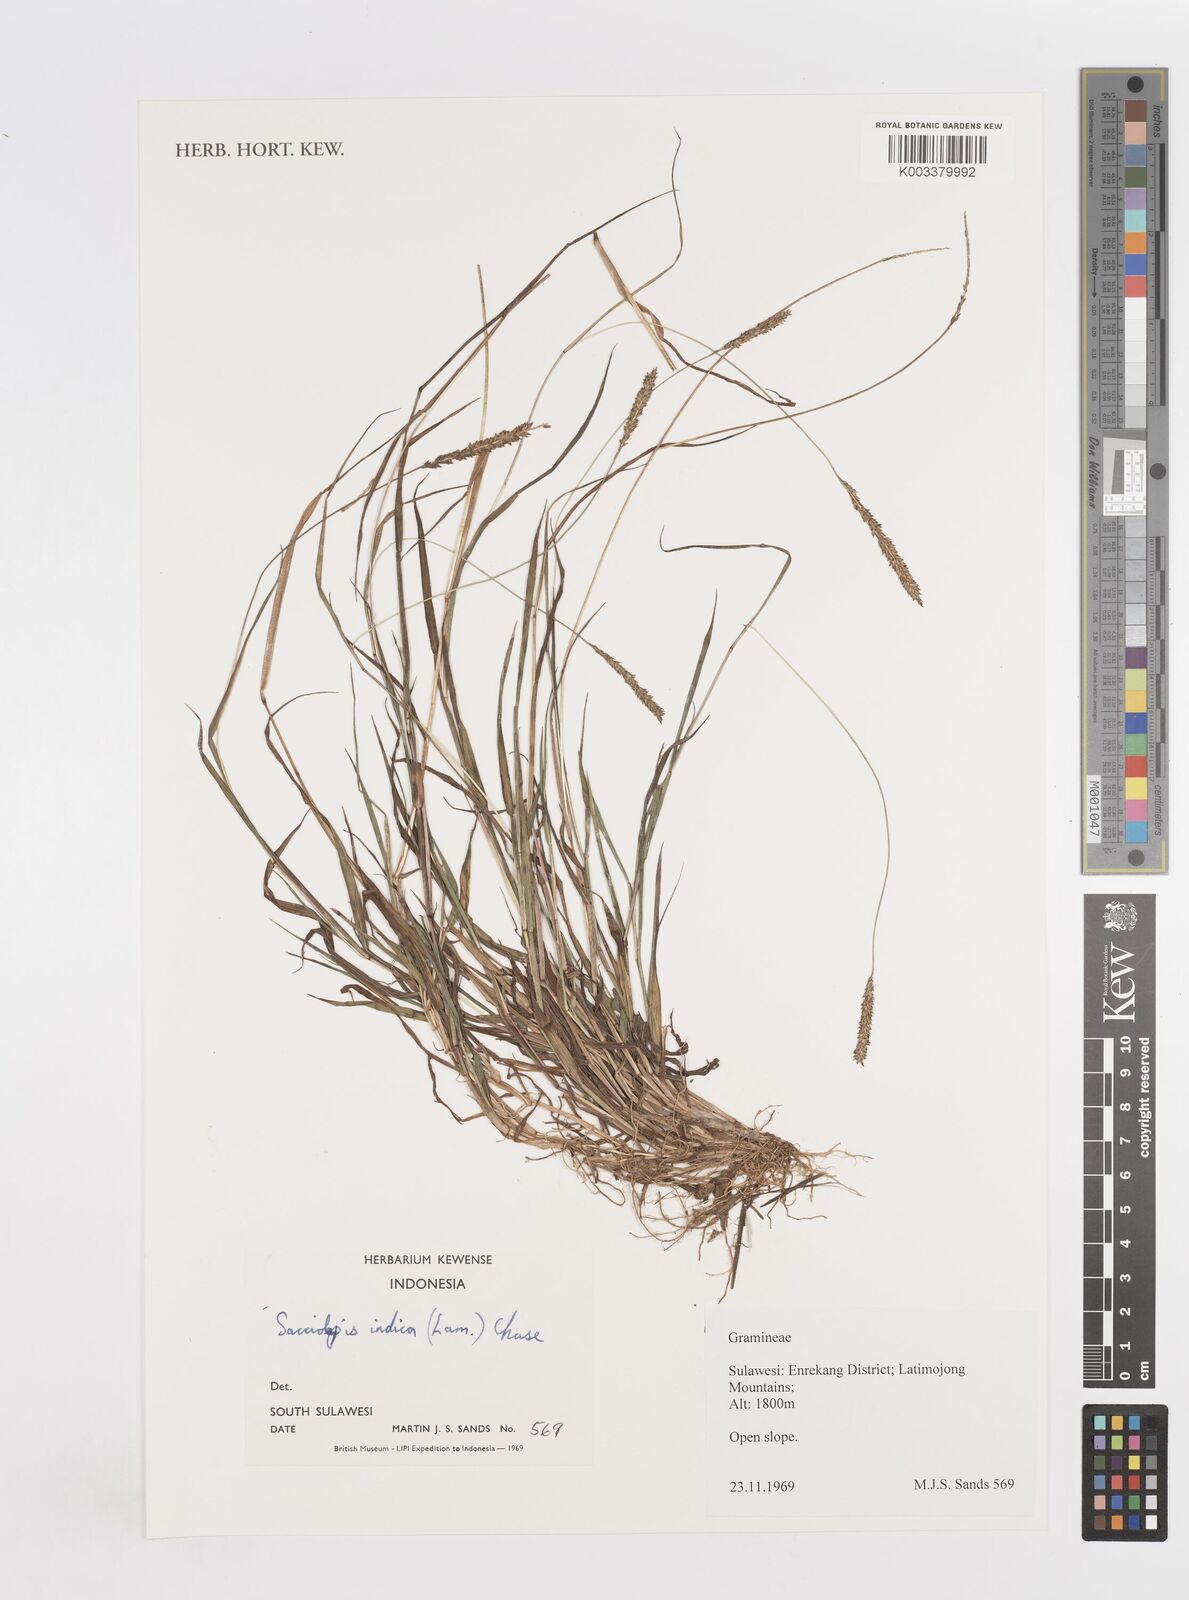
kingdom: Plantae
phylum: Tracheophyta
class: Liliopsida
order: Poales
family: Poaceae
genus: Sacciolepis
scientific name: Sacciolepis indica
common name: Glenwoodgrass
